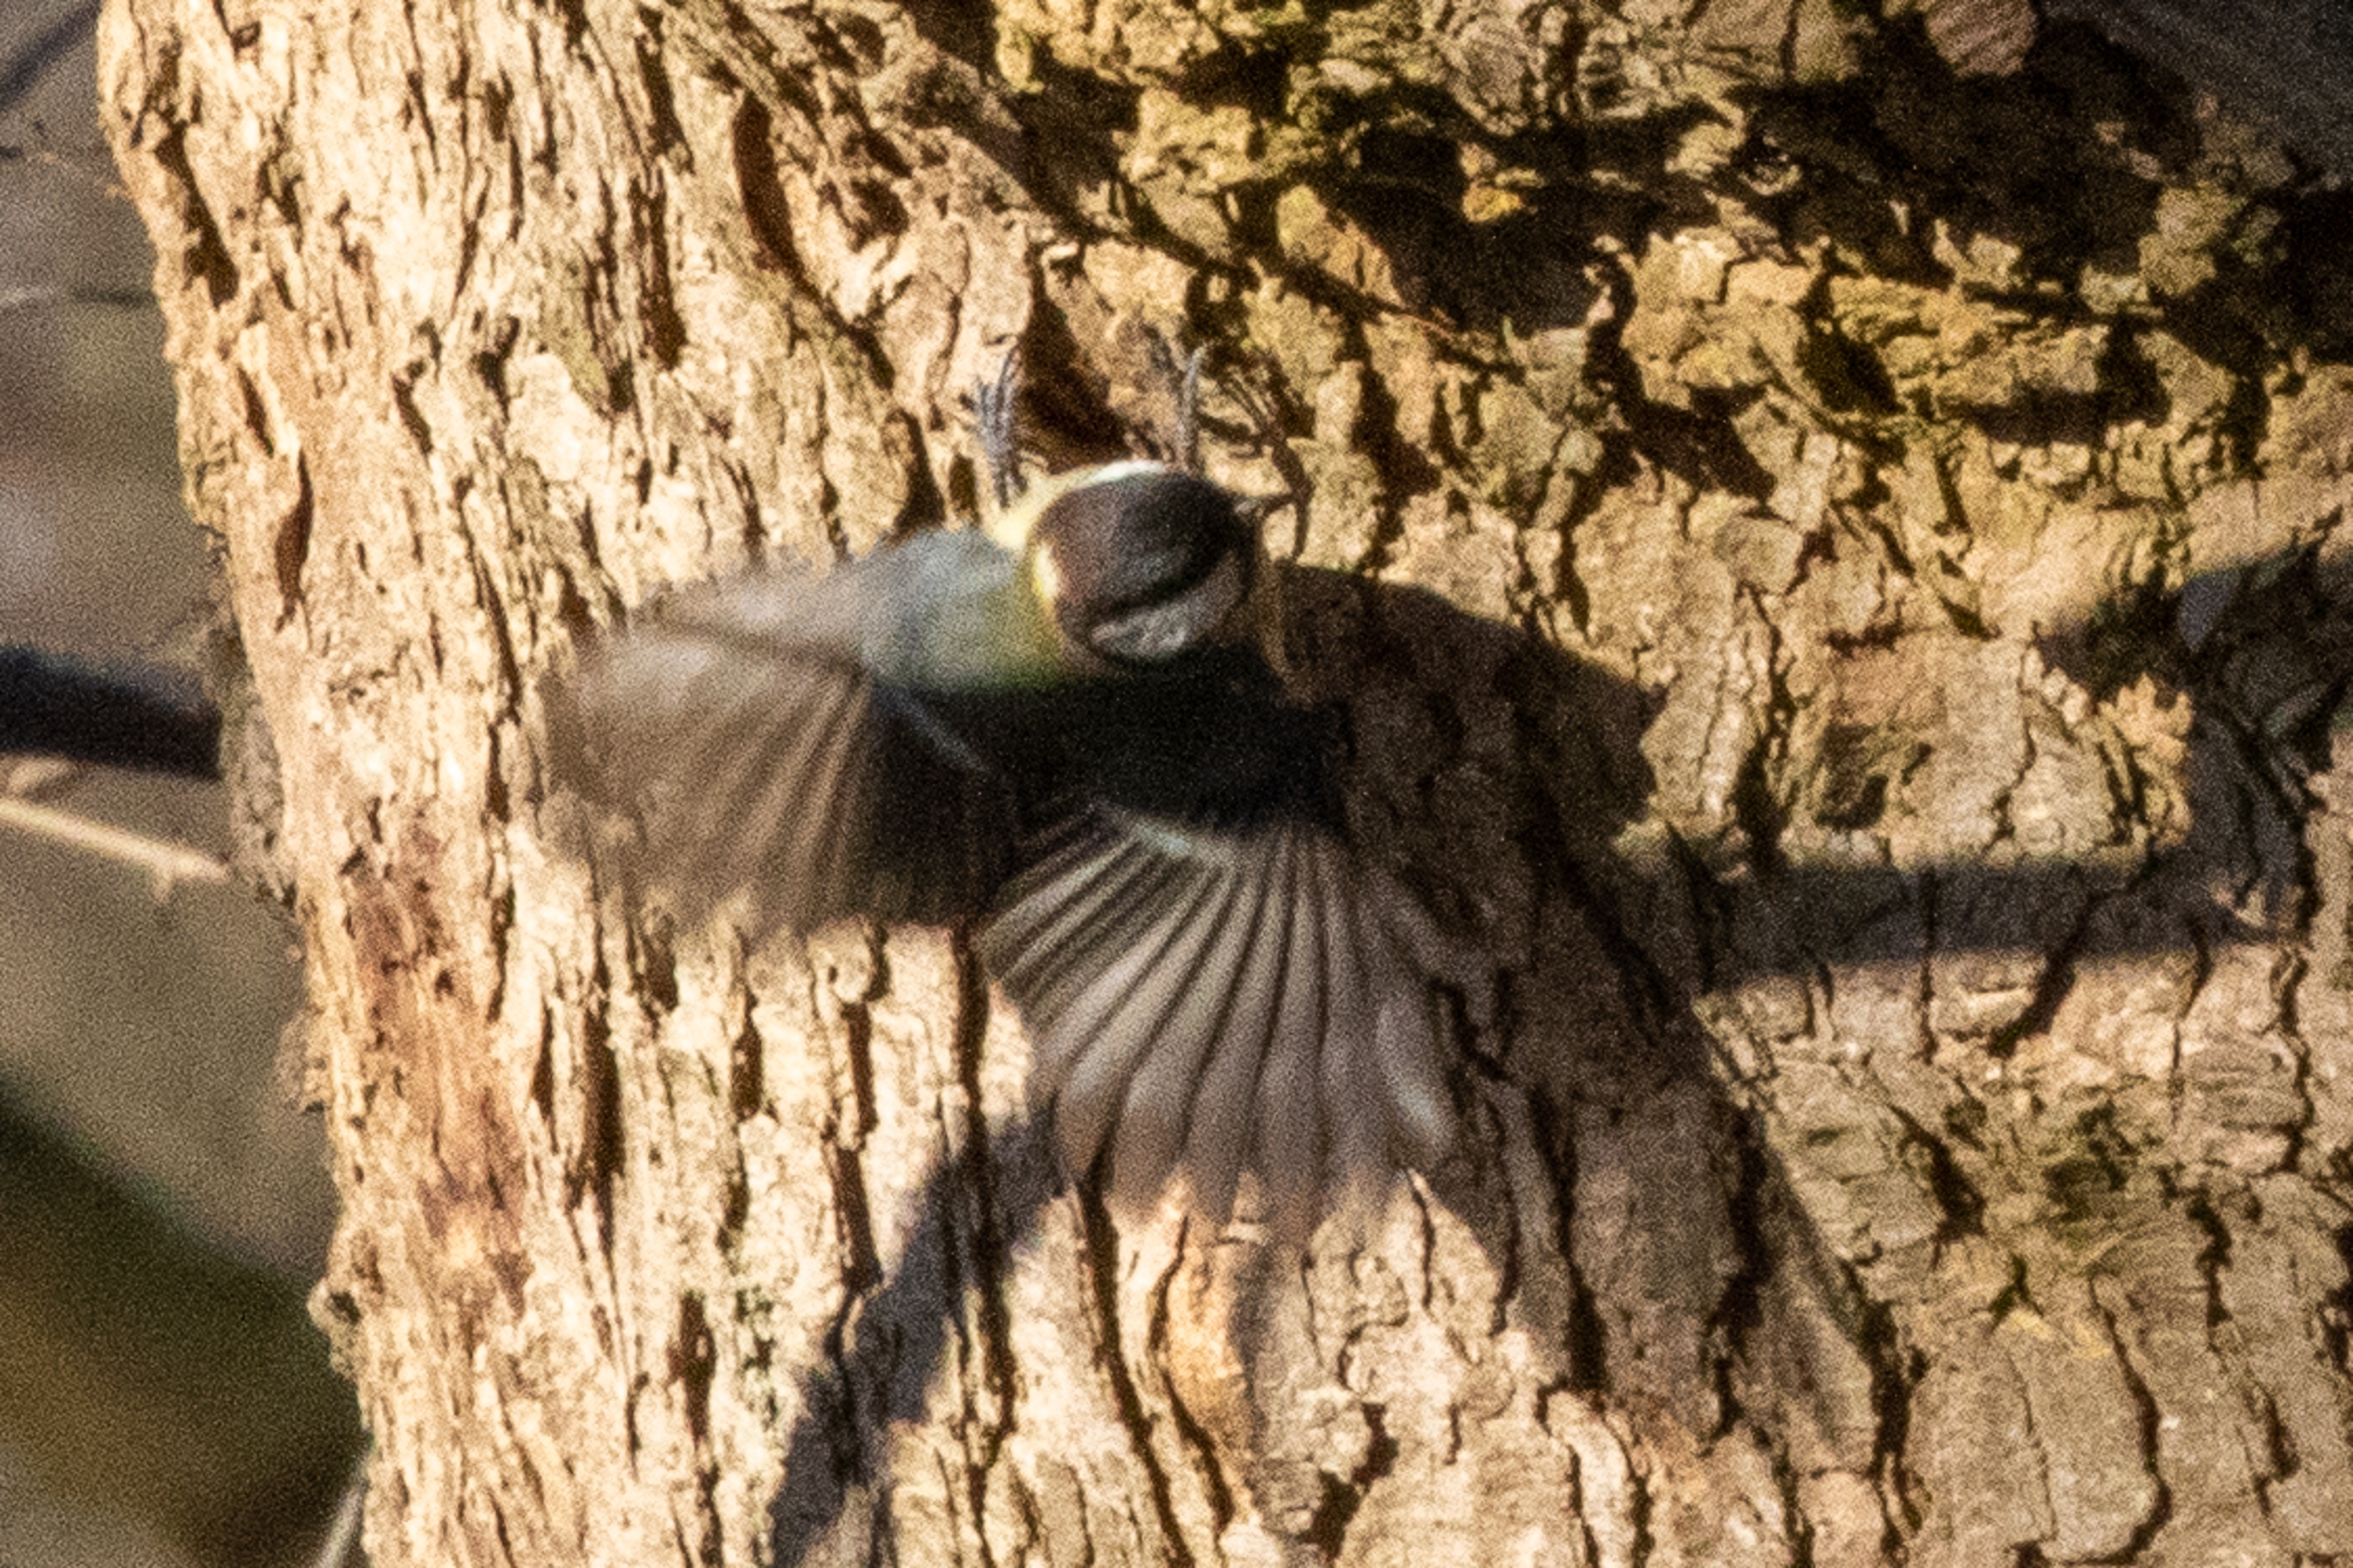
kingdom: Animalia
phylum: Chordata
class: Aves
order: Passeriformes
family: Paridae
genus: Parus
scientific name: Parus major
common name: Musvit
